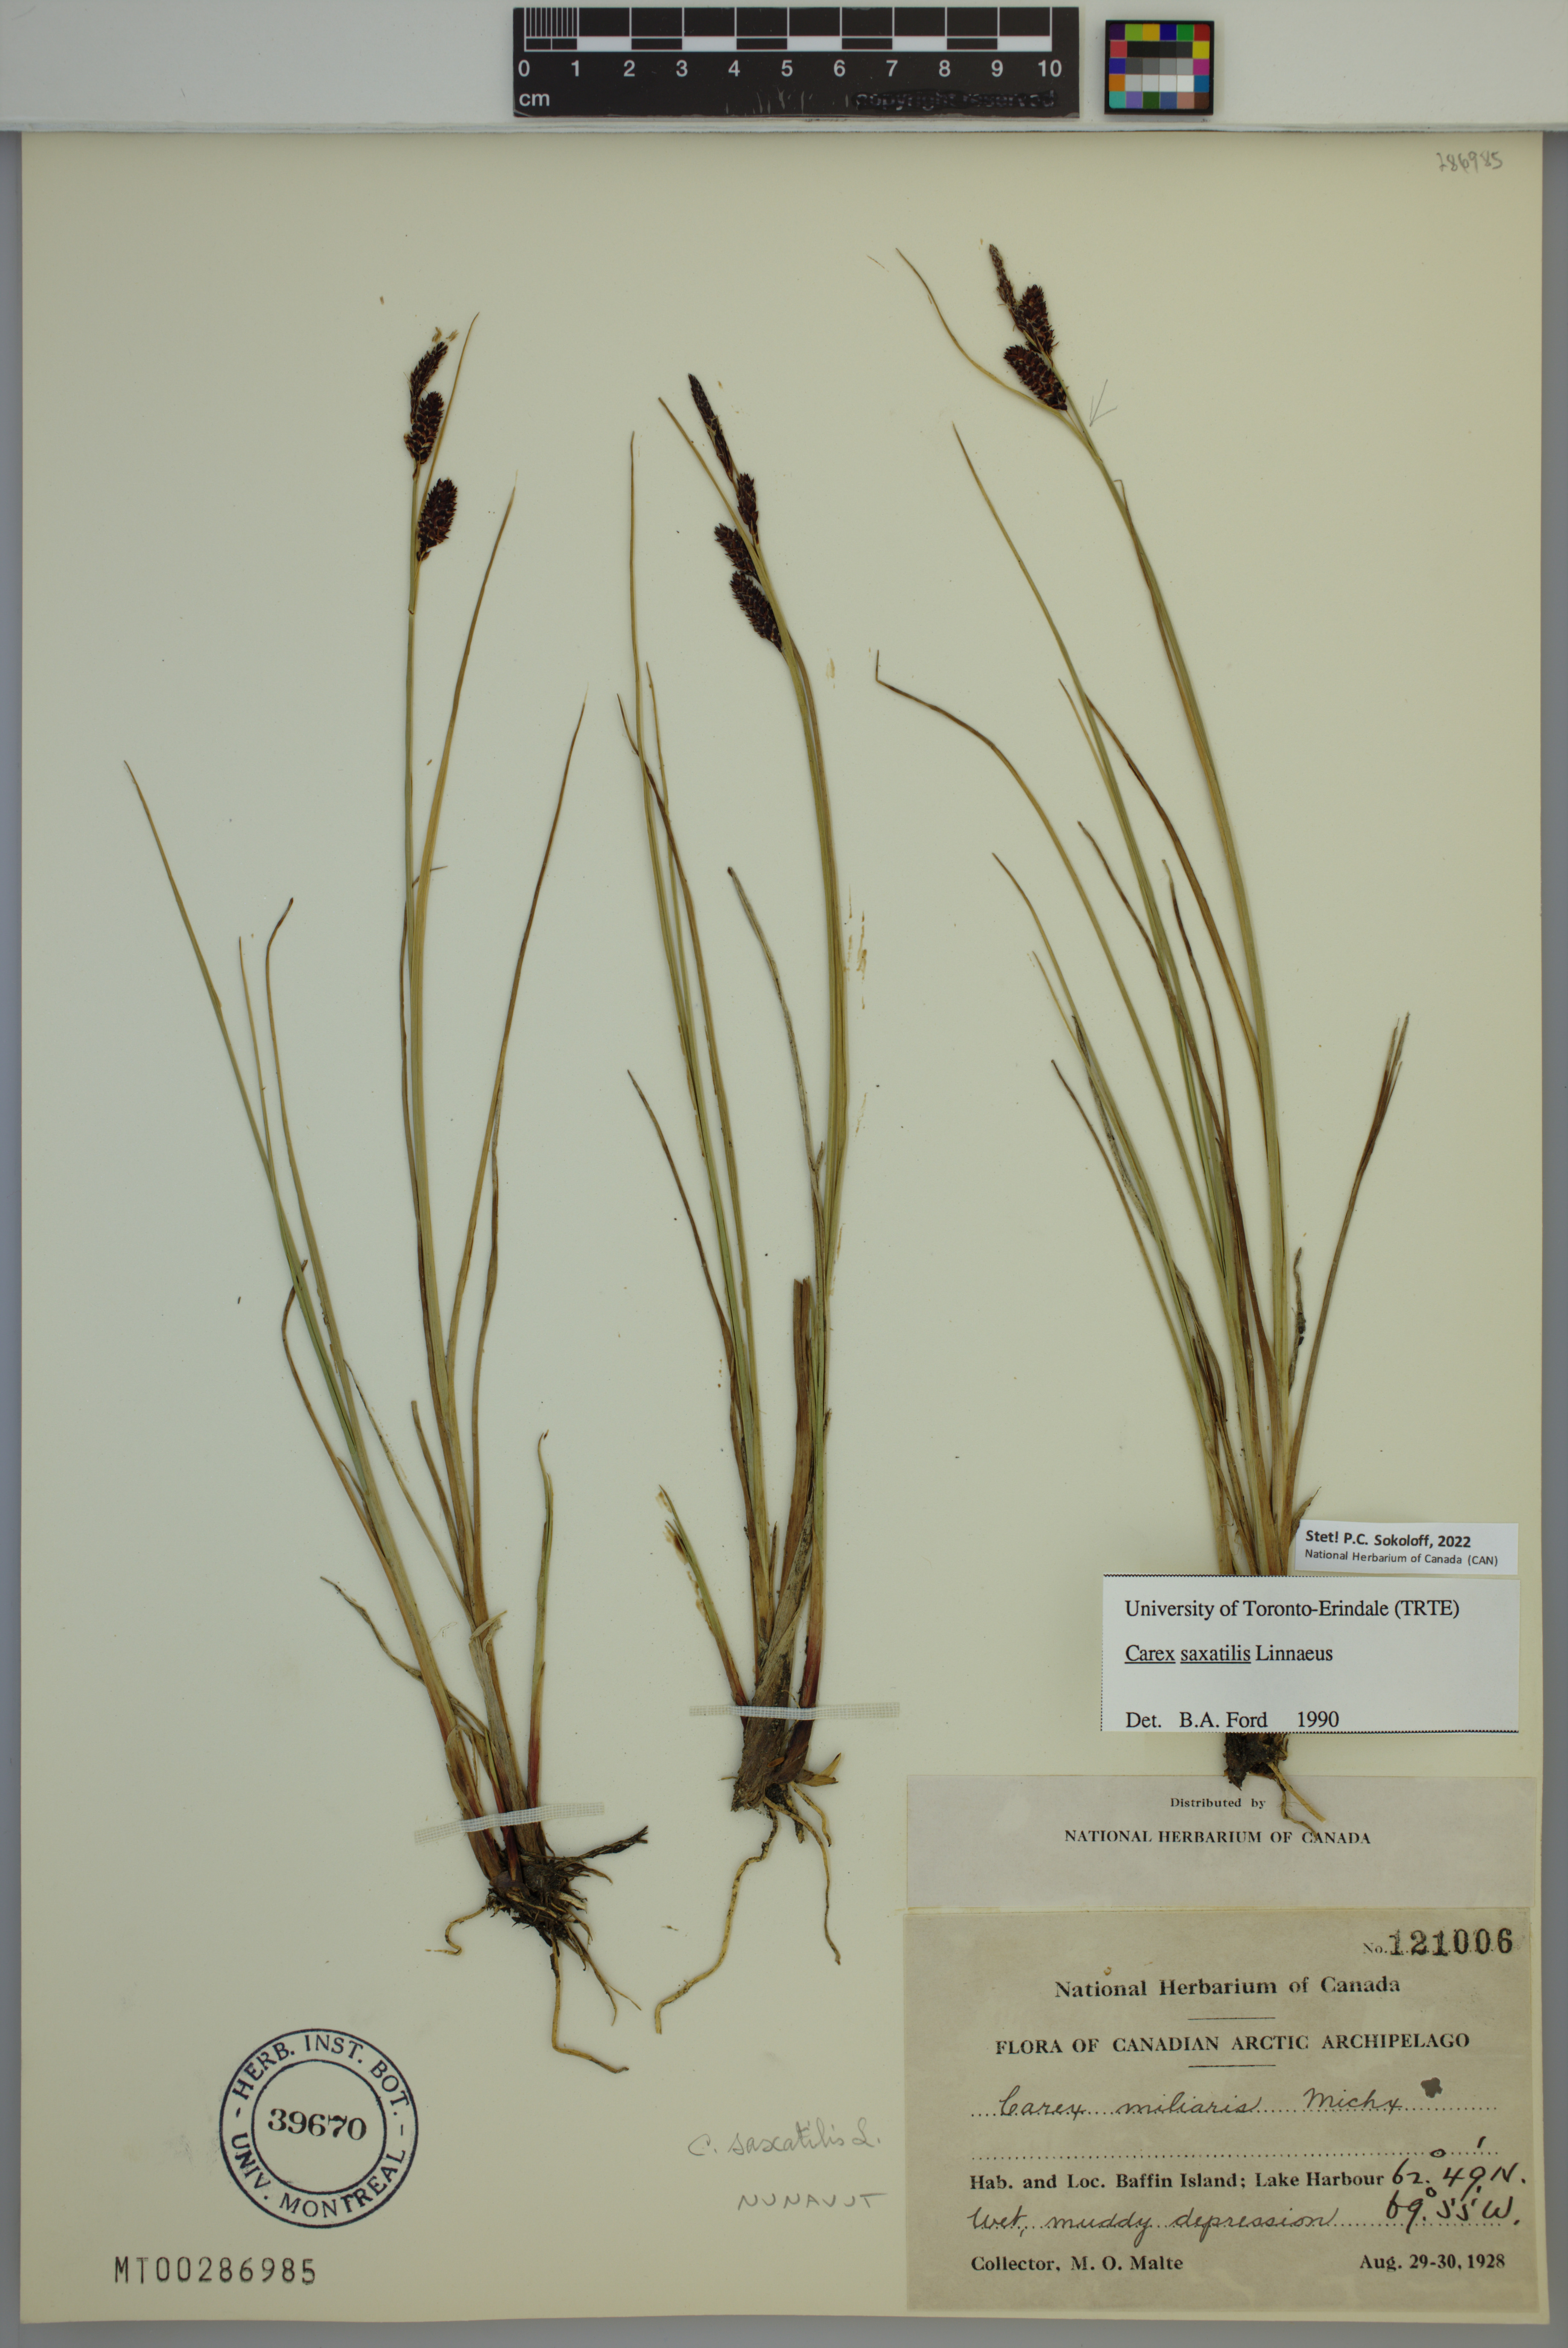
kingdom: Plantae
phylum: Tracheophyta
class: Liliopsida
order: Poales
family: Cyperaceae
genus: Carex
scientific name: Carex saxatilis
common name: Russet sedge
